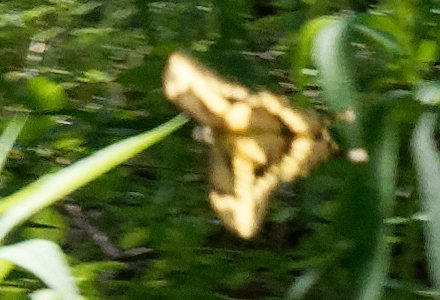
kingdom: Animalia
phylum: Arthropoda
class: Insecta
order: Lepidoptera
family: Papilionidae
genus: Papilio
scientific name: Papilio cresphontes
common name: Eastern Giant Swallowtail
